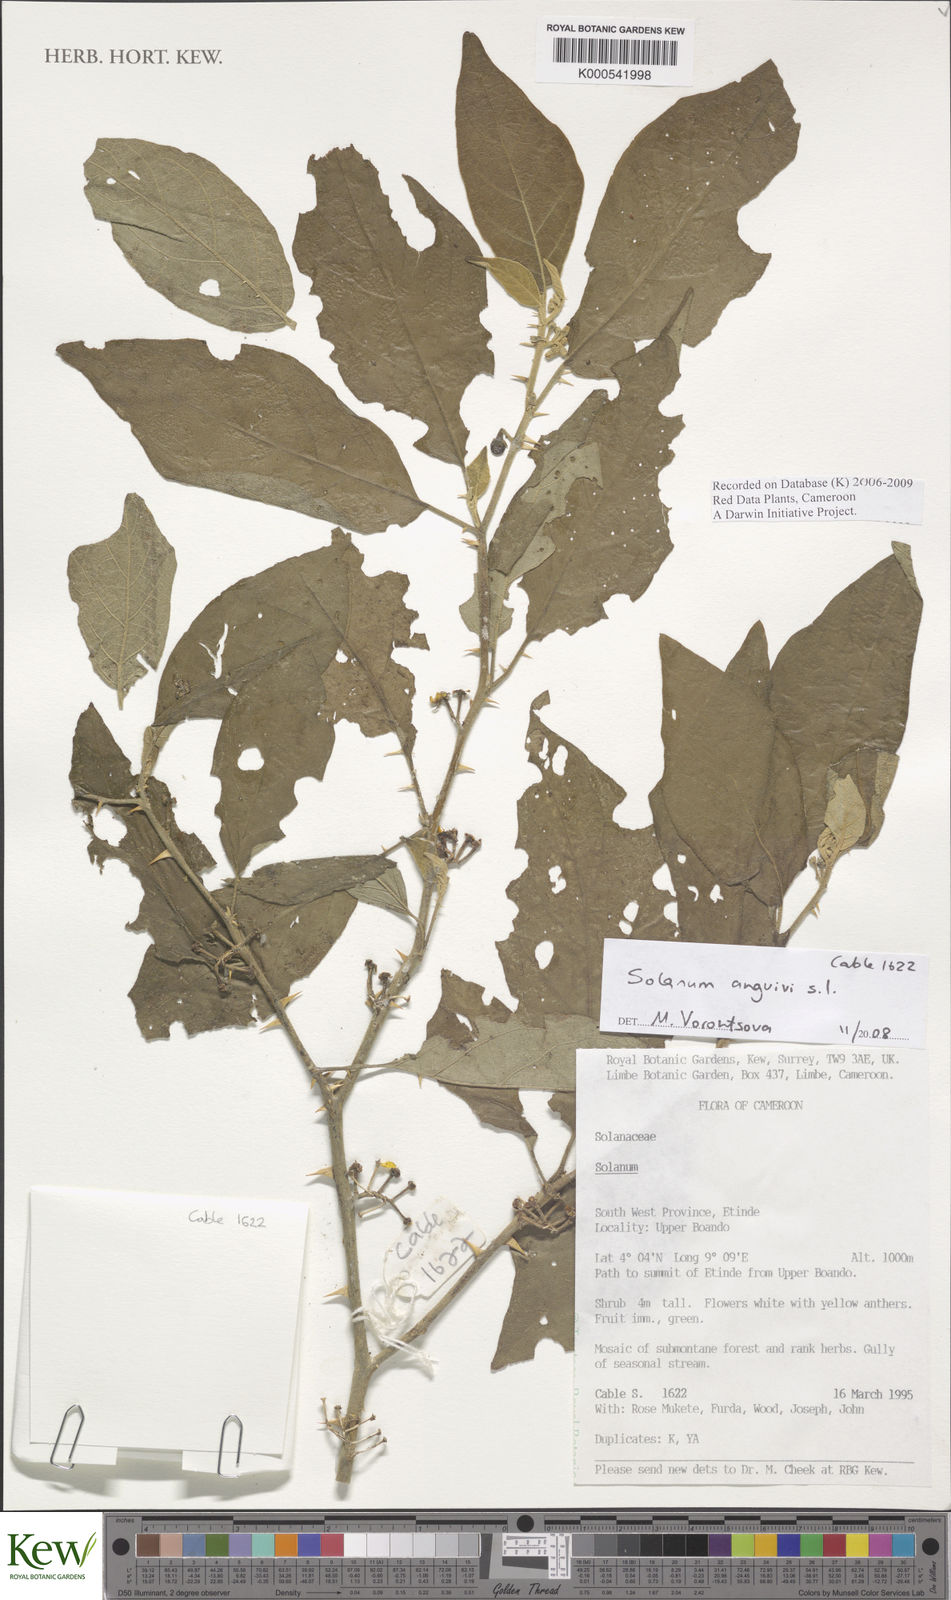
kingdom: Plantae
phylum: Tracheophyta
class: Magnoliopsida
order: Solanales
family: Solanaceae
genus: Solanum
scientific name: Solanum anguivi
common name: Forest bitterberry
